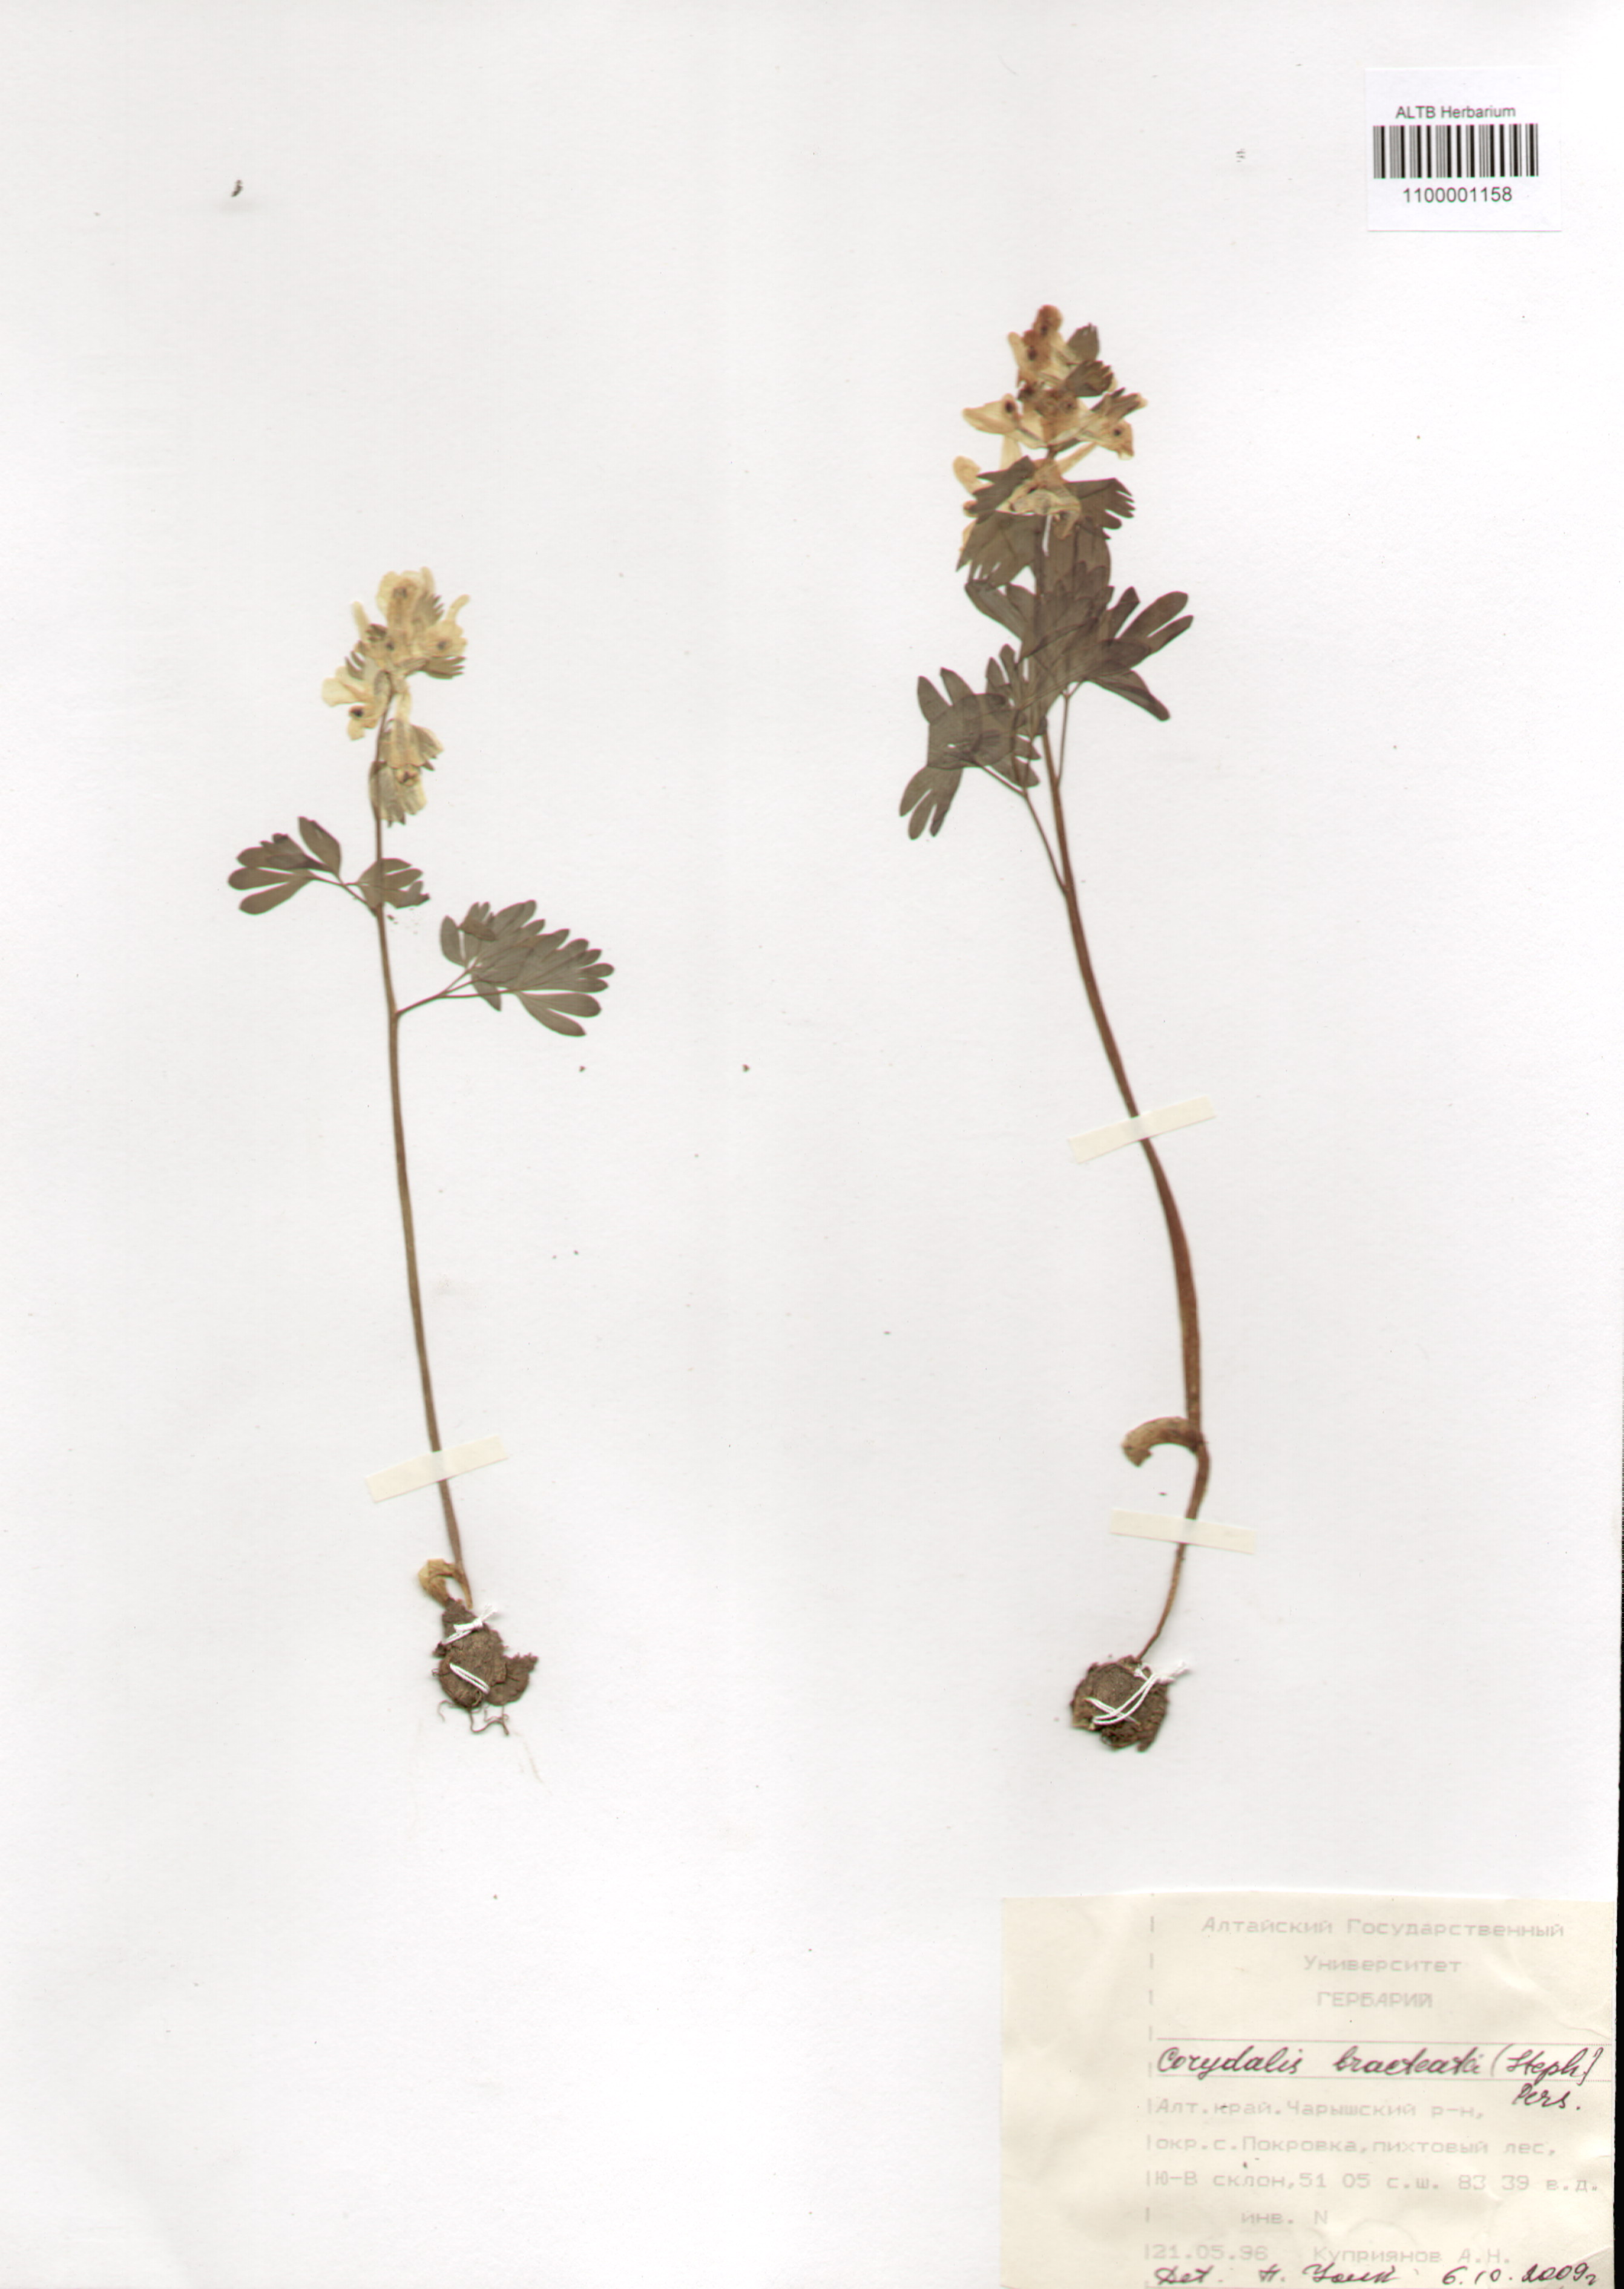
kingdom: Plantae
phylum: Tracheophyta
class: Magnoliopsida
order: Ranunculales
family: Papaveraceae
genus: Corydalis
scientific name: Corydalis bracteata
